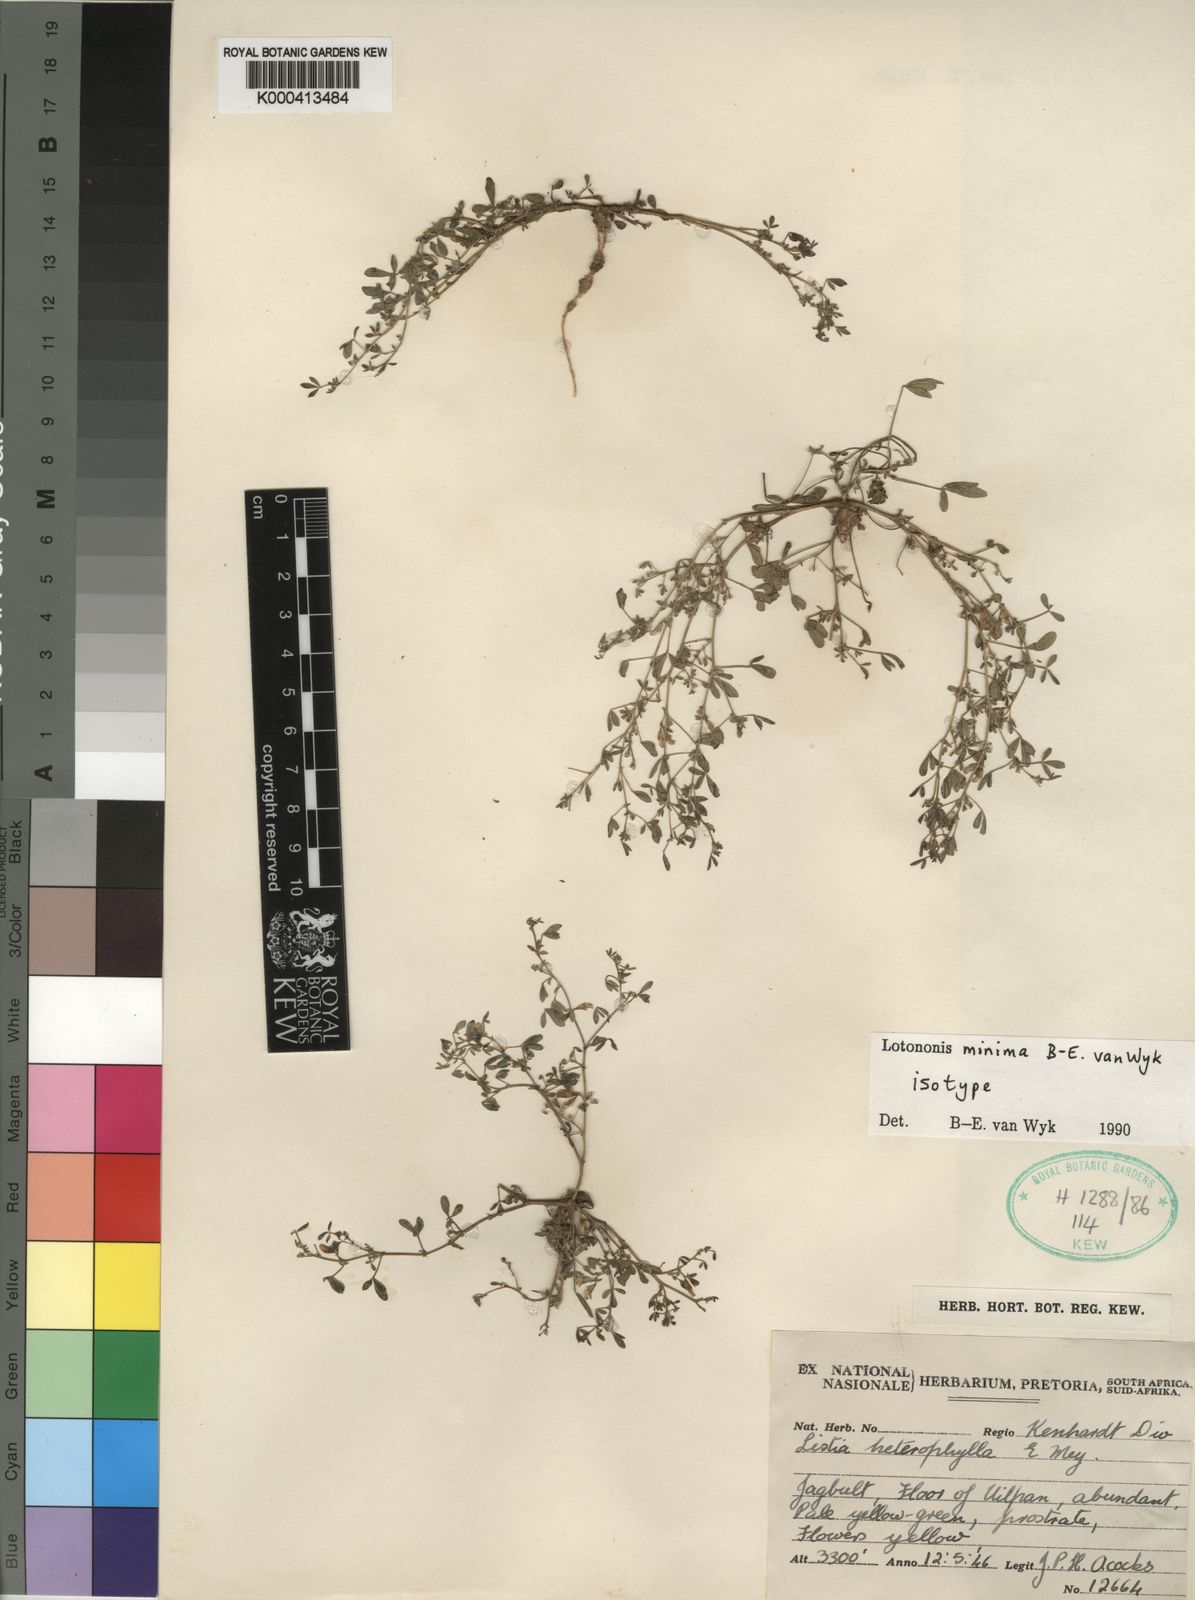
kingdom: Plantae
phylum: Tracheophyta
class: Magnoliopsida
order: Fabales
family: Fabaceae
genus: Listia
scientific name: Listia minima
